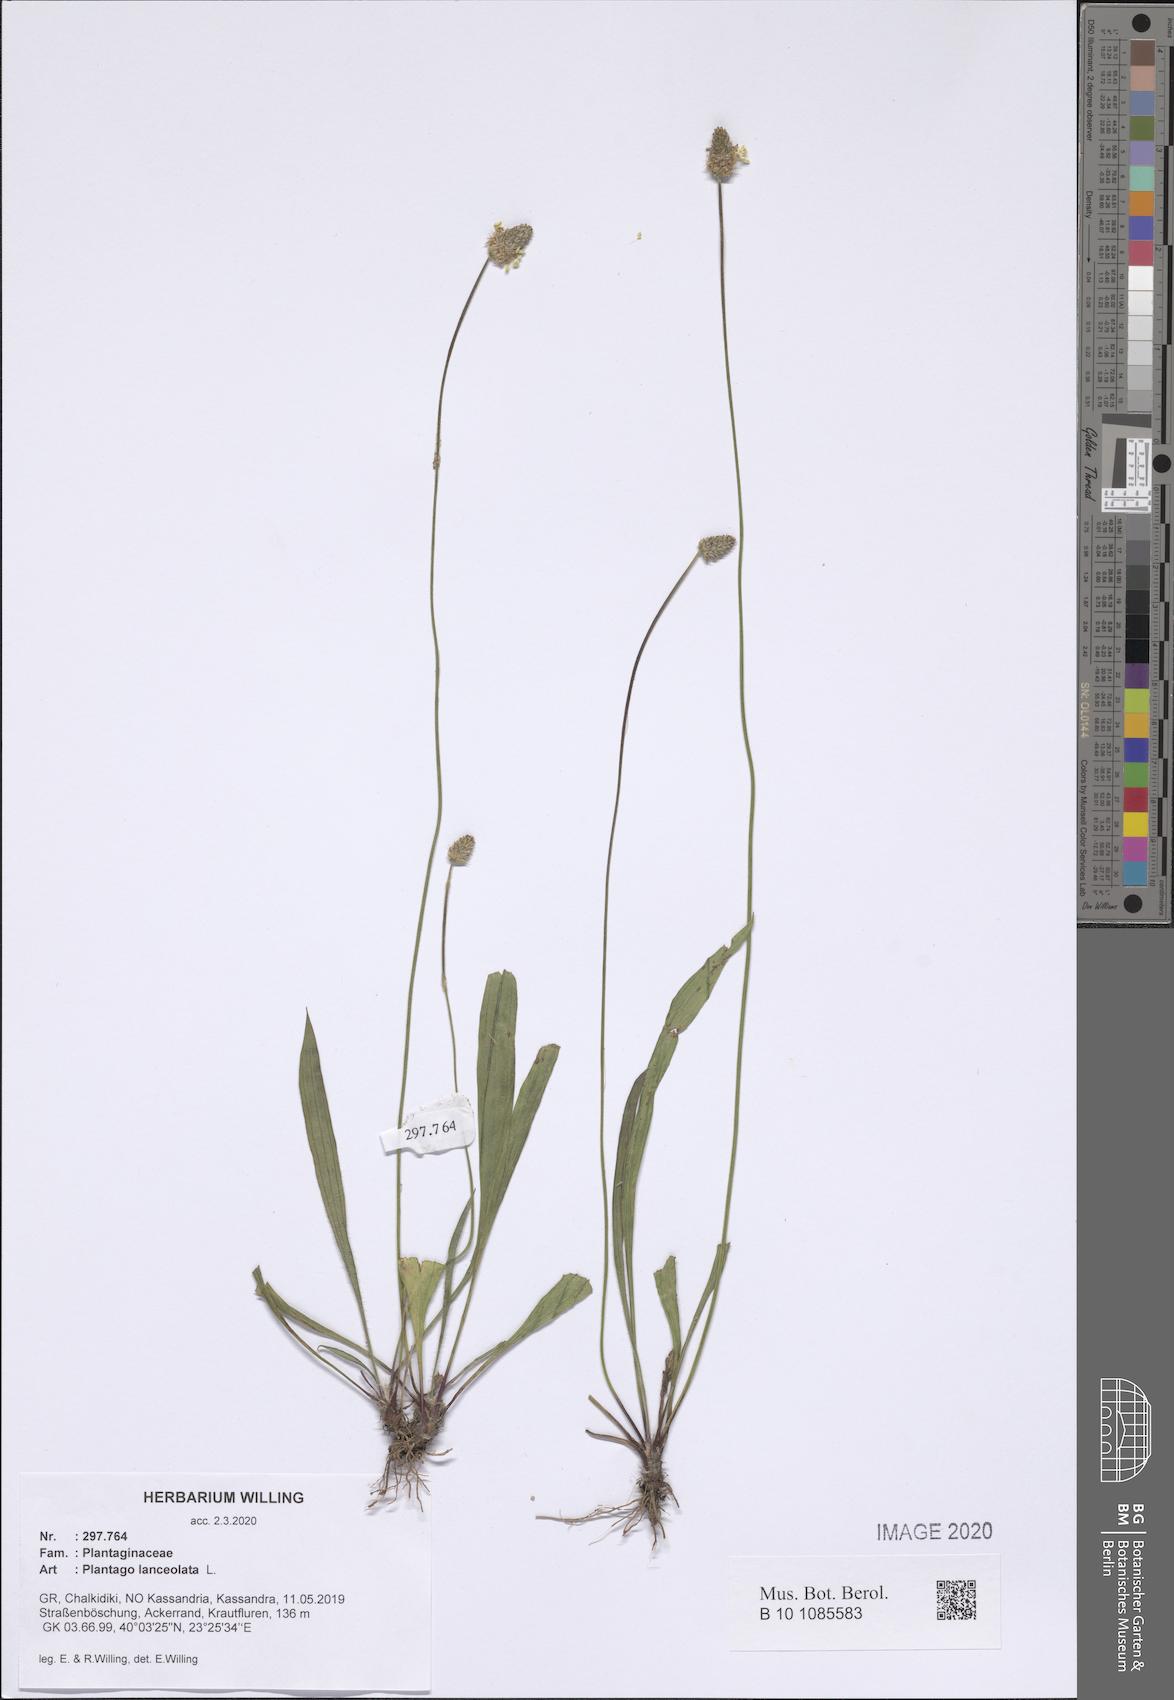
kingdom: Plantae
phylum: Tracheophyta
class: Magnoliopsida
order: Lamiales
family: Plantaginaceae
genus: Plantago
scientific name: Plantago lanceolata
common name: Ribwort plantain
